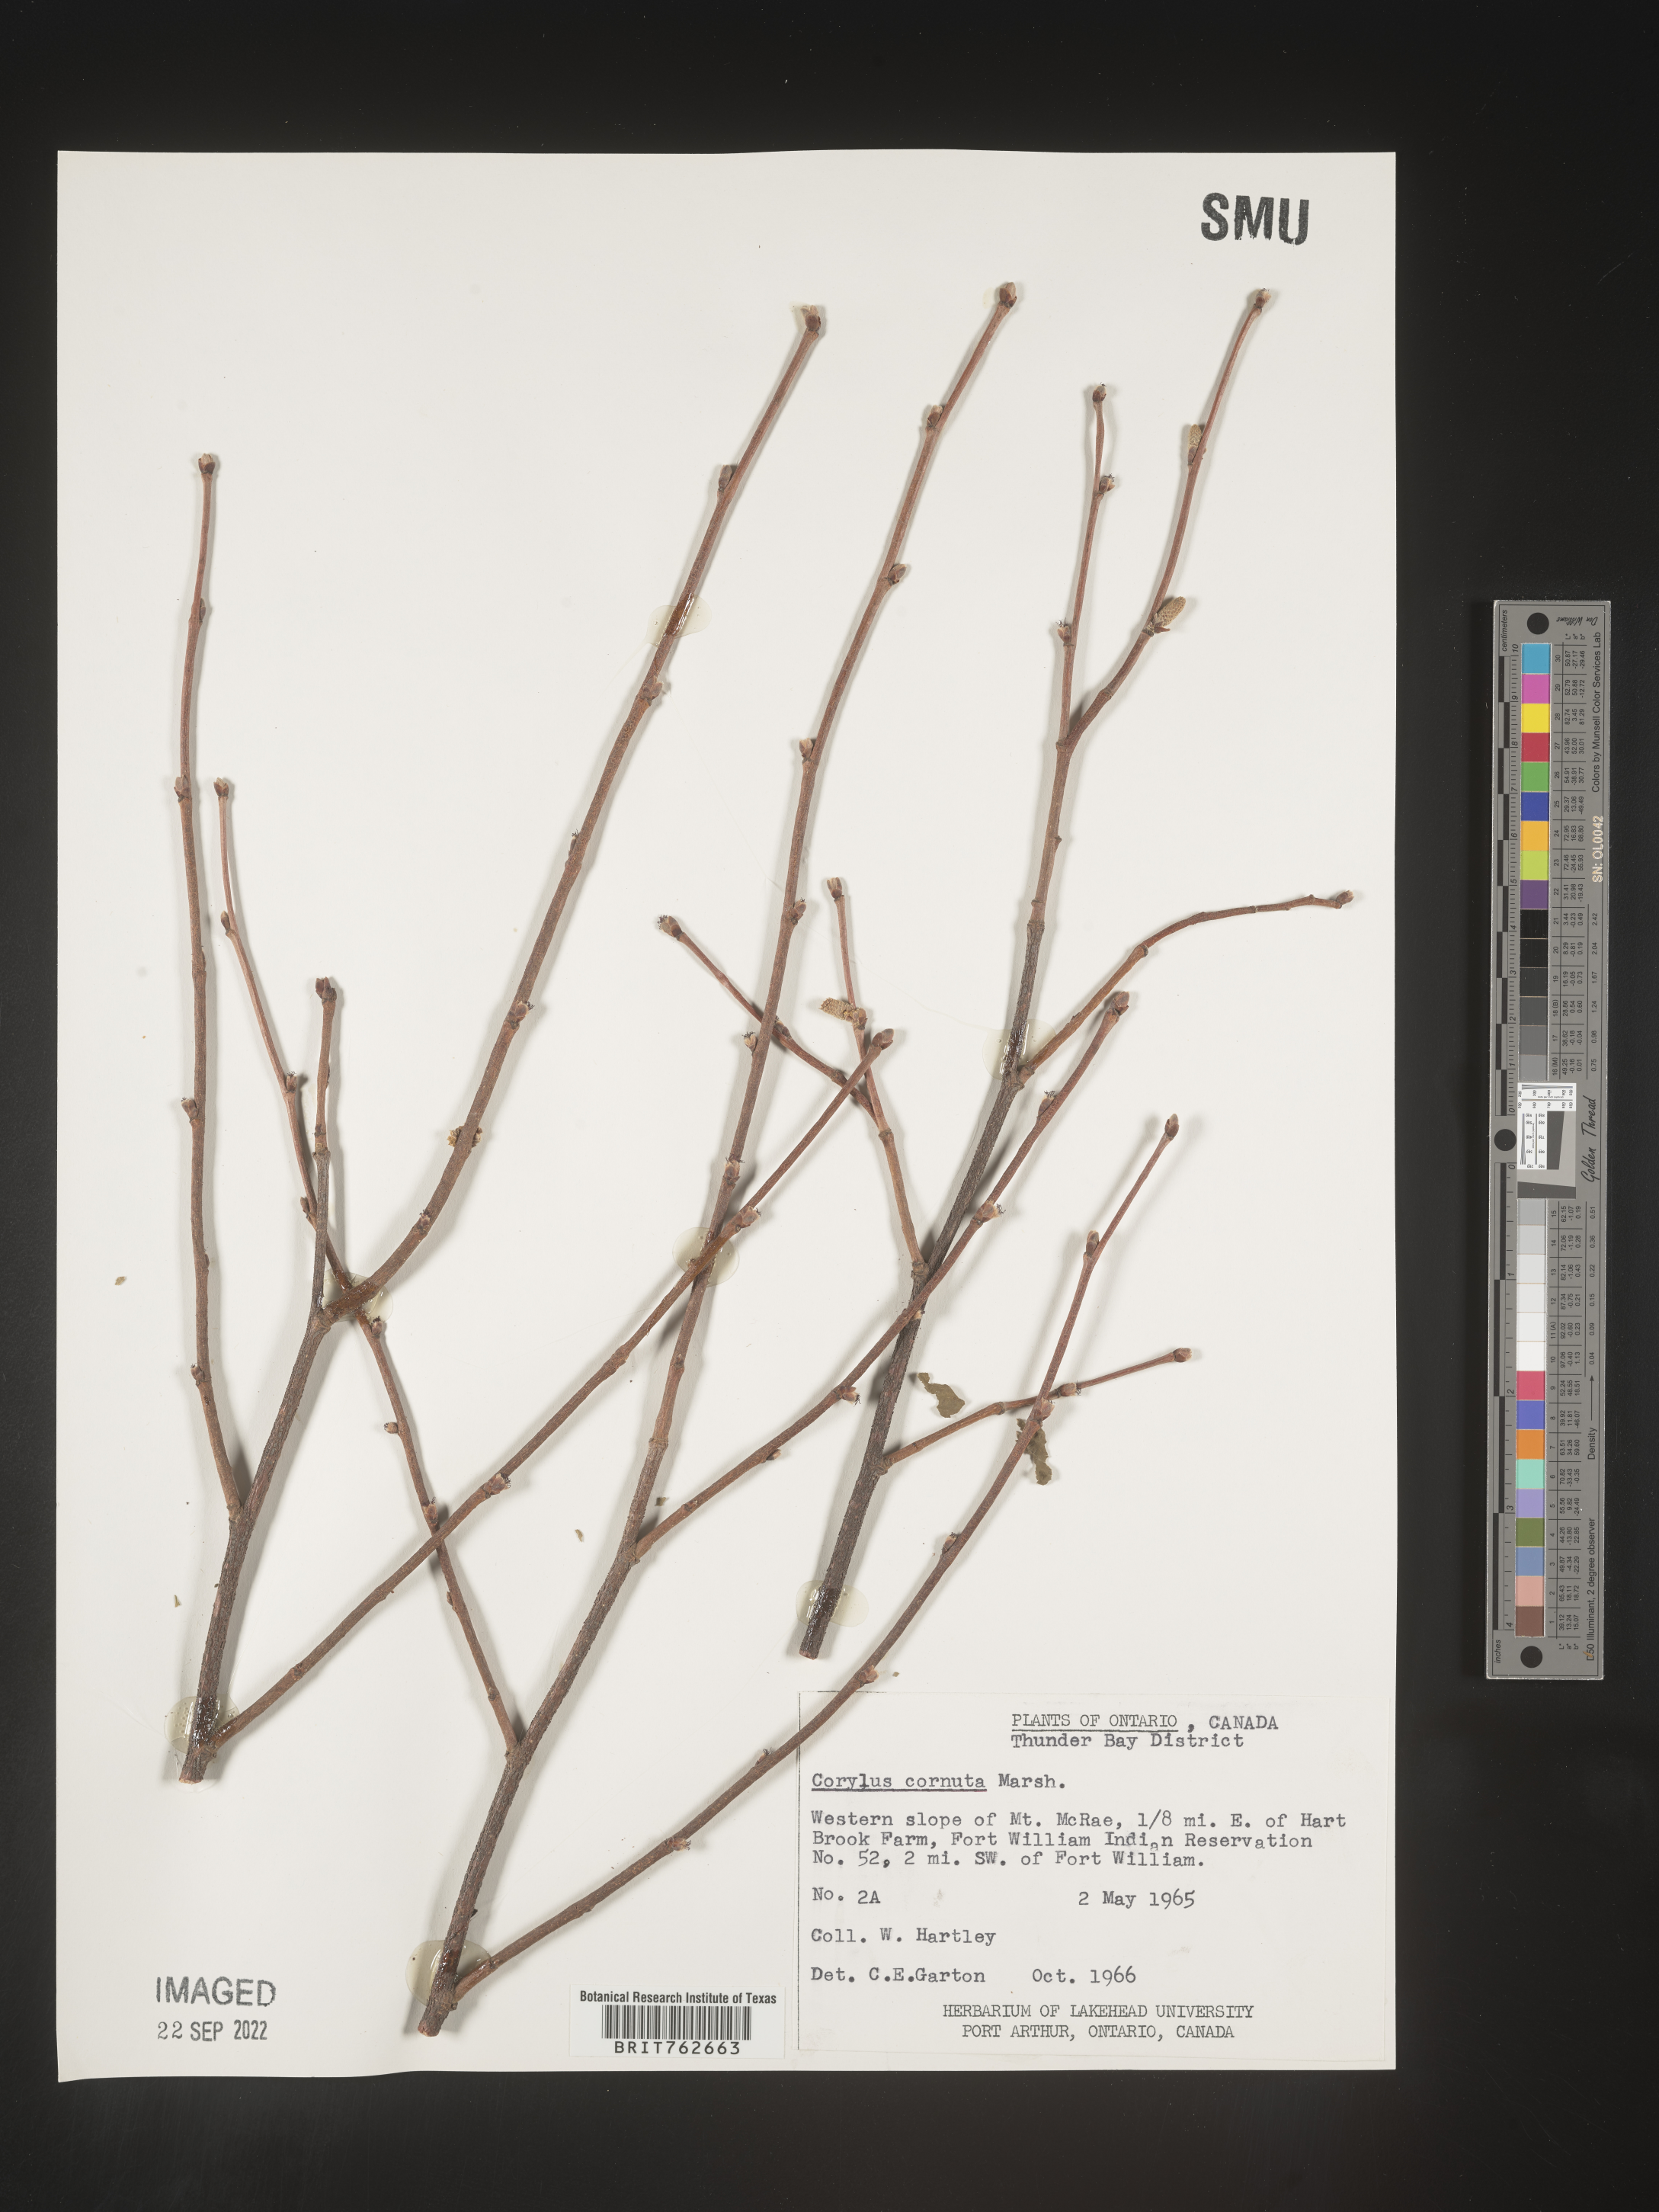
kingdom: Plantae
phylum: Tracheophyta
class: Magnoliopsida
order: Fagales
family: Betulaceae
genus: Corylus
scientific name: Corylus cornuta
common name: Beaked hazel
